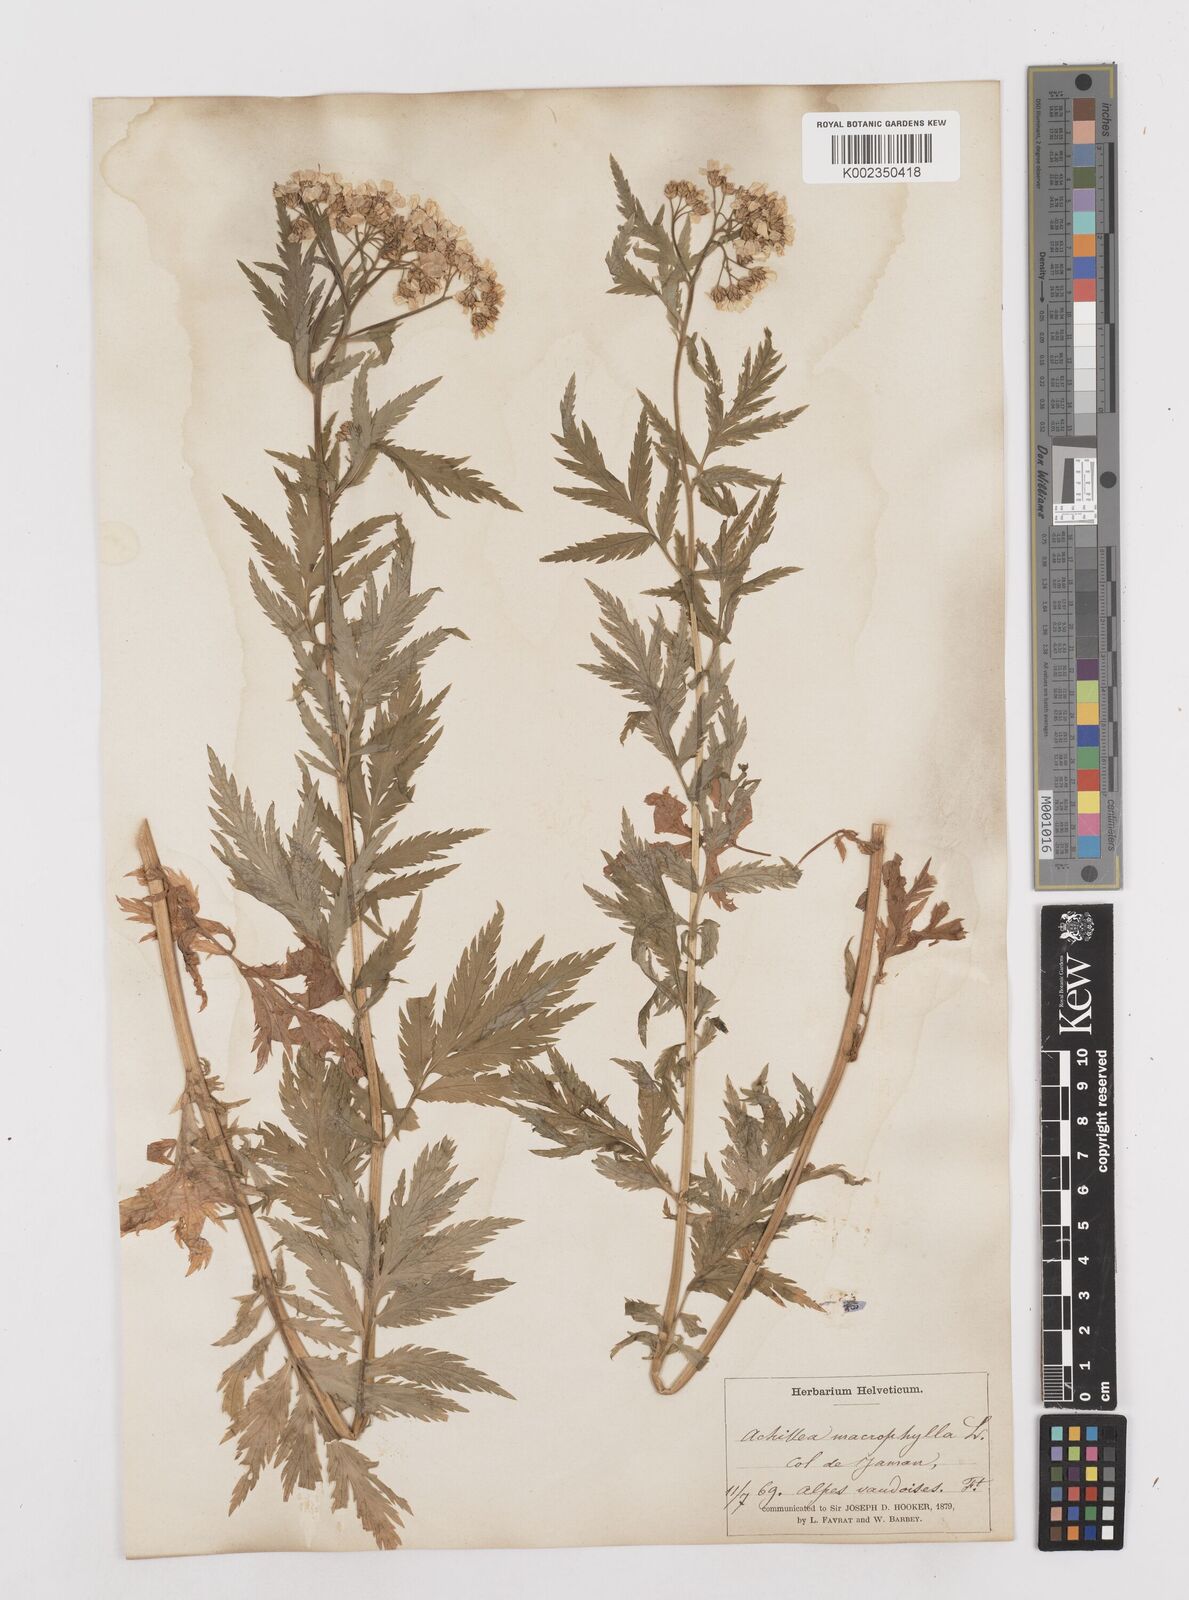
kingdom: Plantae
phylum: Tracheophyta
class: Magnoliopsida
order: Asterales
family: Asteraceae
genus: Achillea
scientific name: Achillea macrophylla
